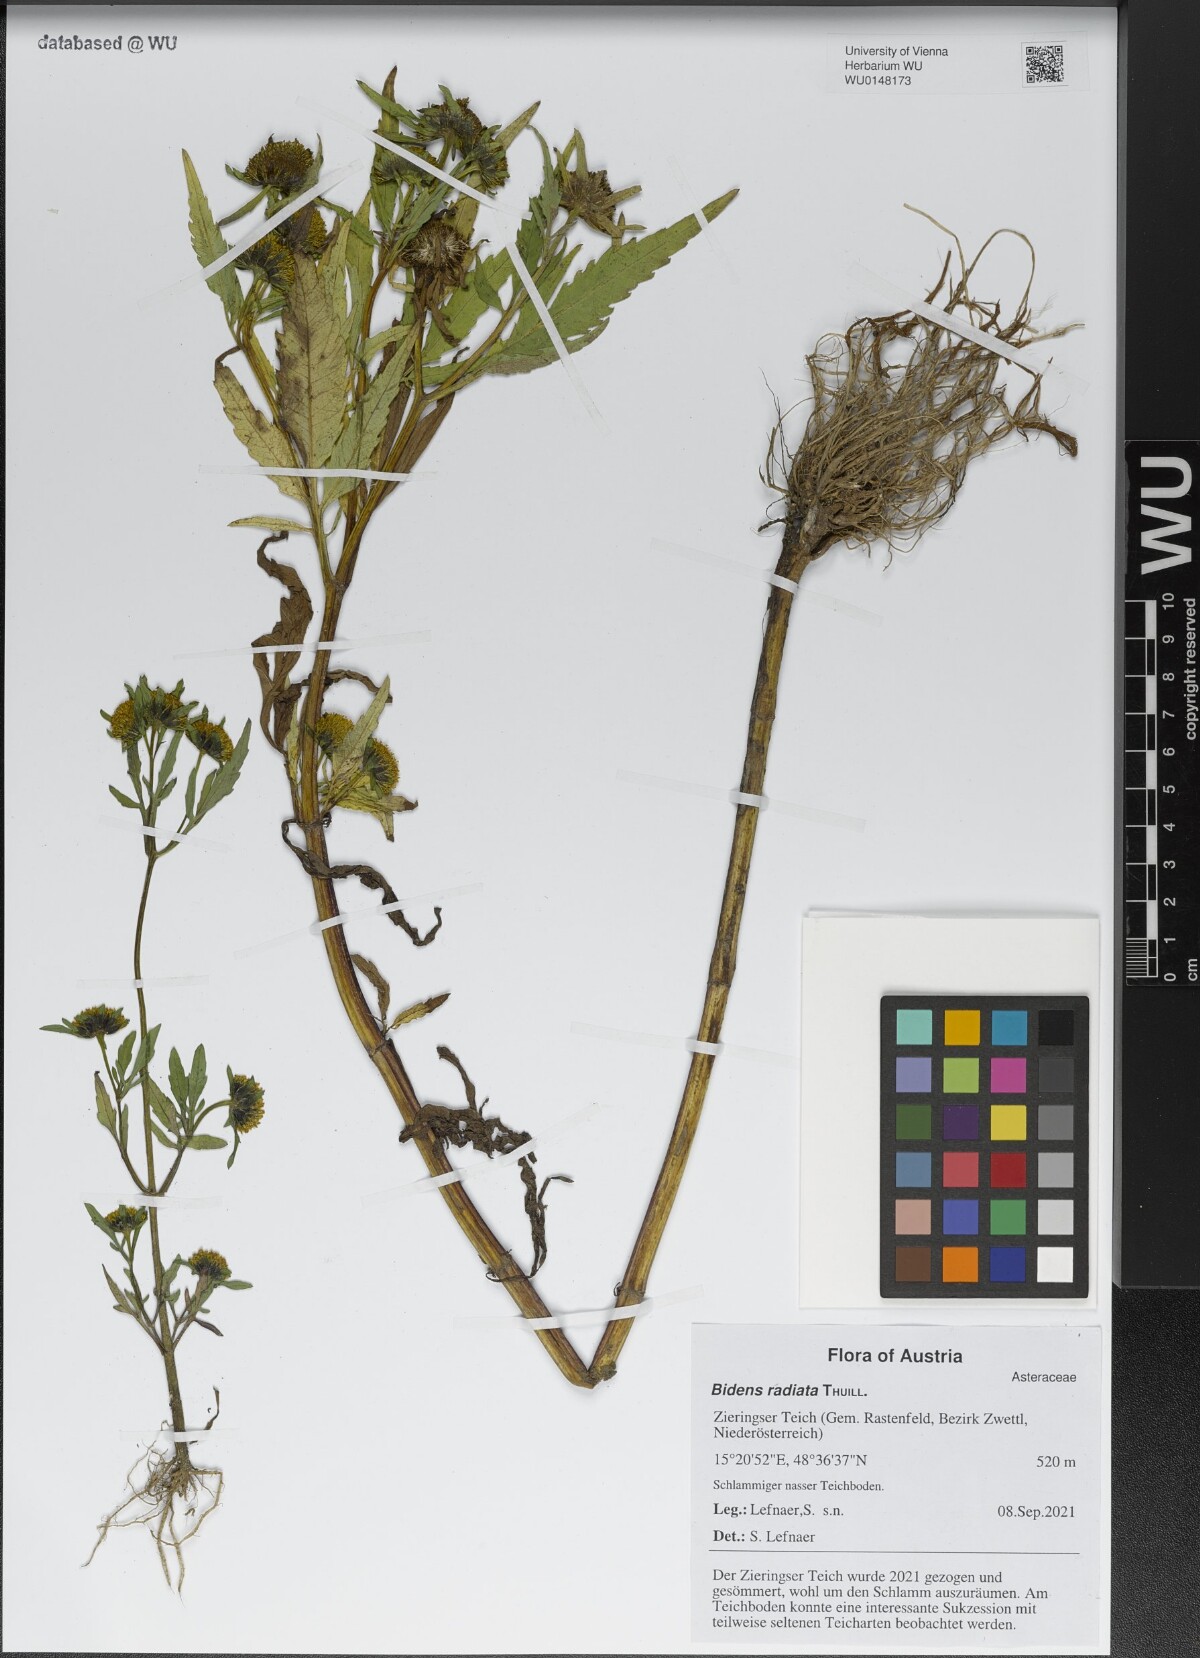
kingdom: Plantae
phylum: Tracheophyta
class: Magnoliopsida
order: Asterales
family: Asteraceae
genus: Bidens
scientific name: Bidens radiata
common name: Radiating bur-marigold
